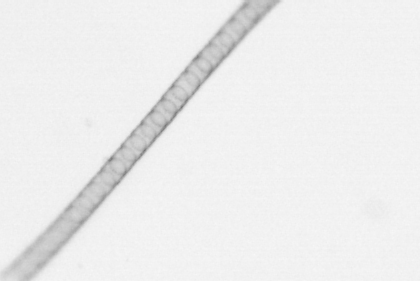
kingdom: Chromista
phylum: Ochrophyta
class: Bacillariophyceae
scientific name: Bacillariophyceae
